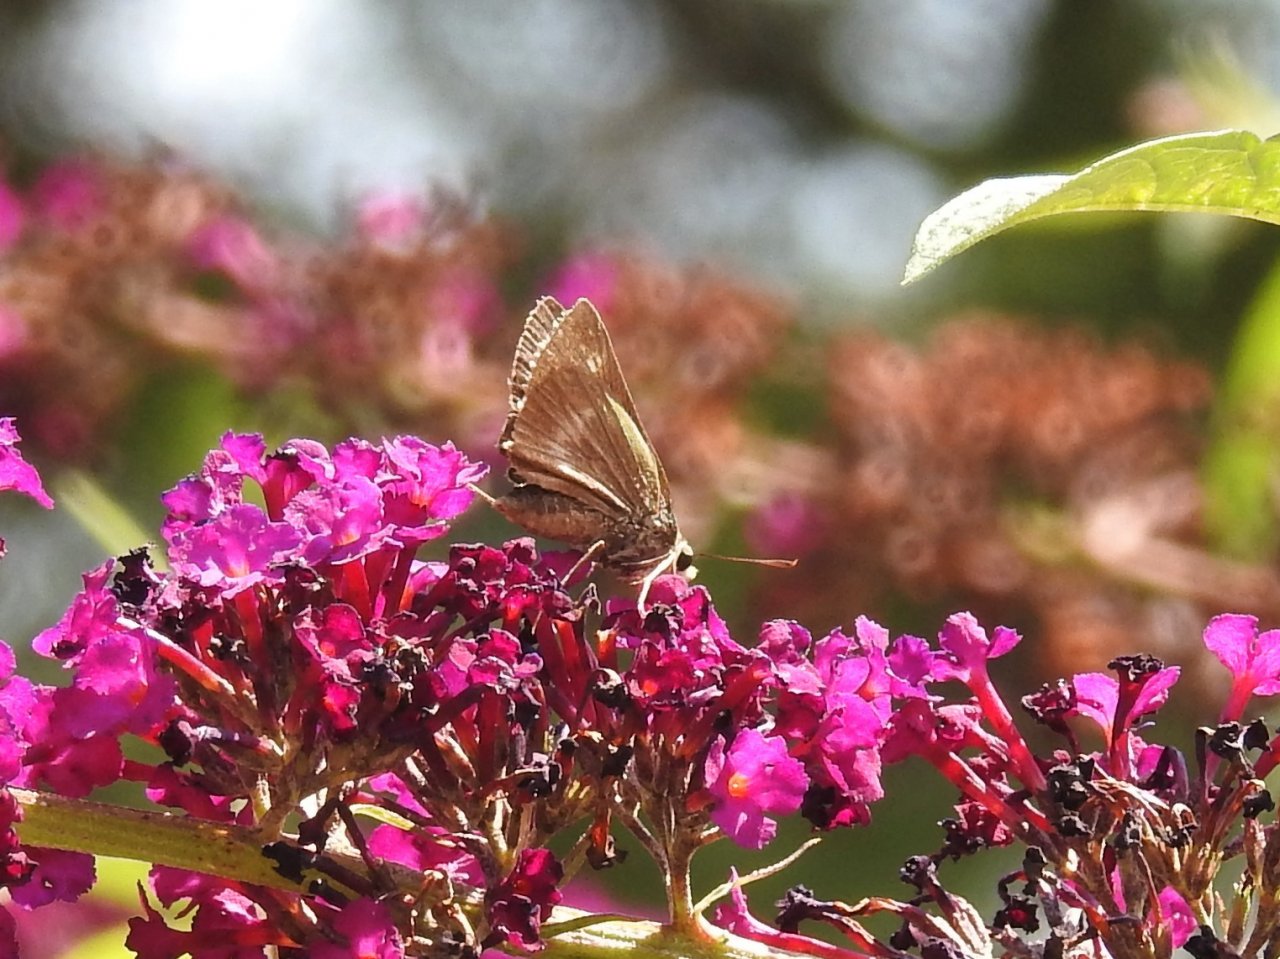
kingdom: Animalia
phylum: Arthropoda
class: Insecta
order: Lepidoptera
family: Hesperiidae
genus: Polites
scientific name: Polites egeremet
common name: Northern Broken-Dash
